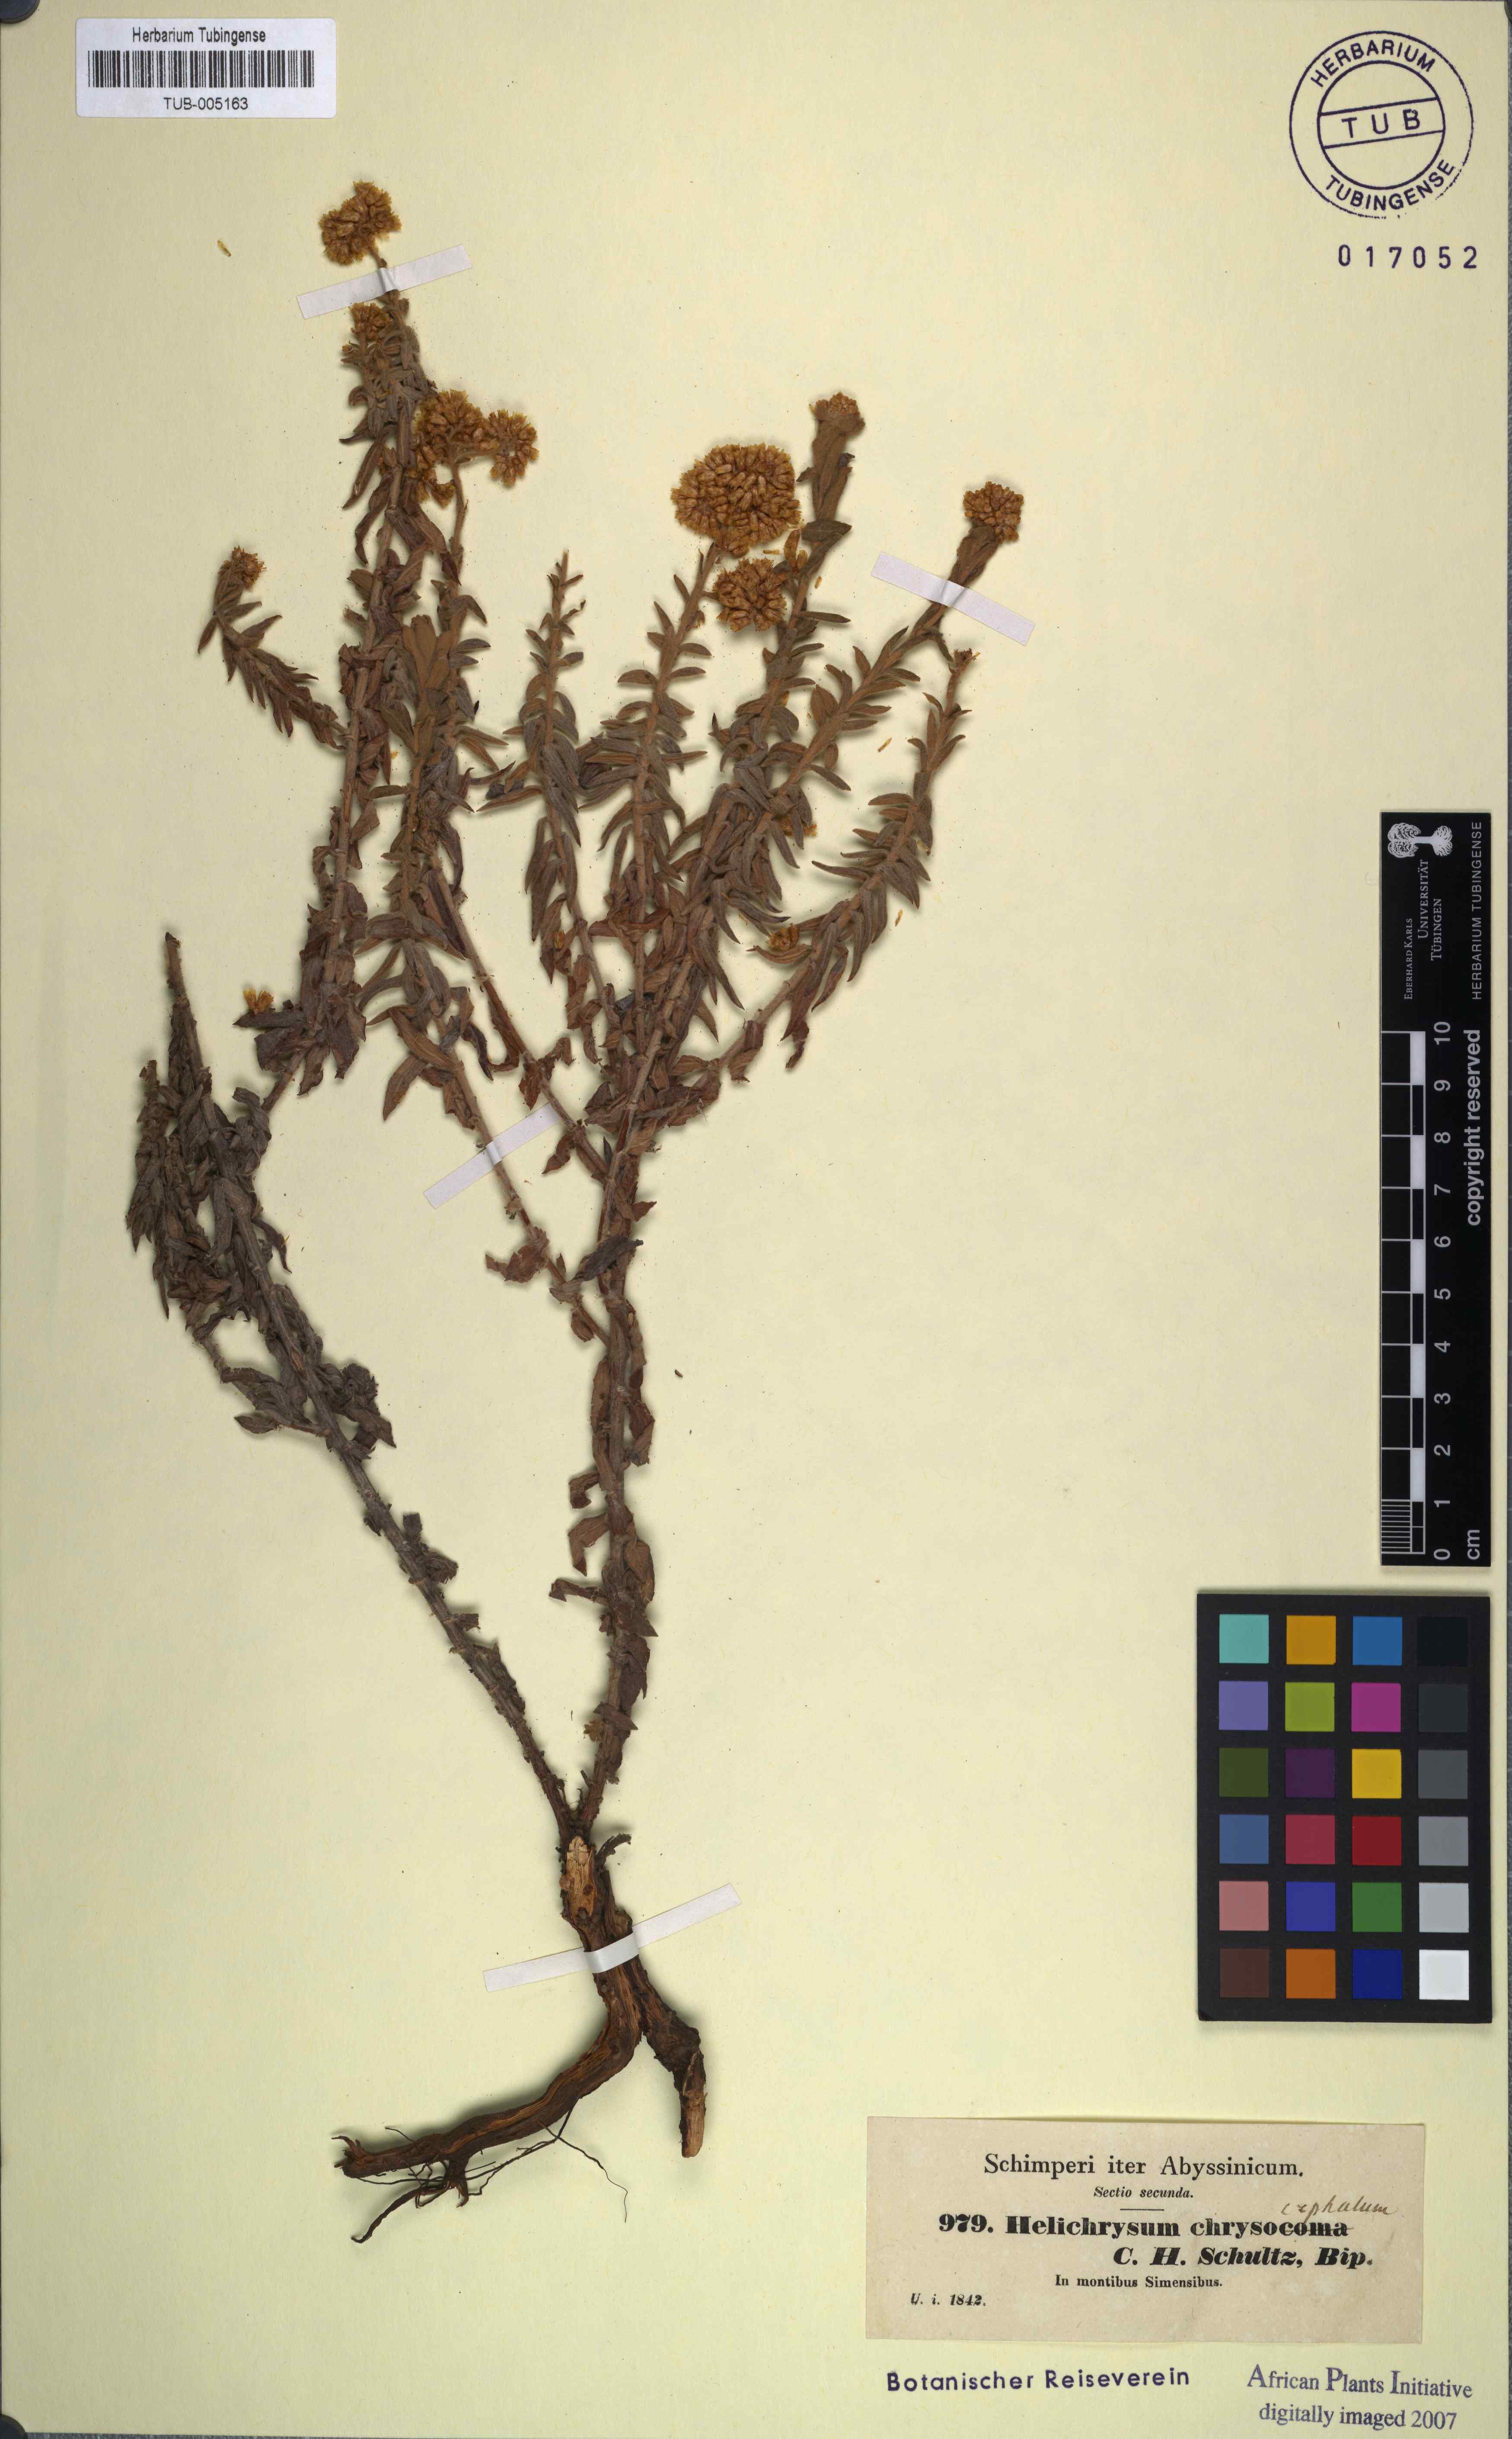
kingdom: Plantae
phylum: Tracheophyta
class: Magnoliopsida
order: Asterales
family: Asteraceae
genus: Helichrysum
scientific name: Helichrysum cymosum
